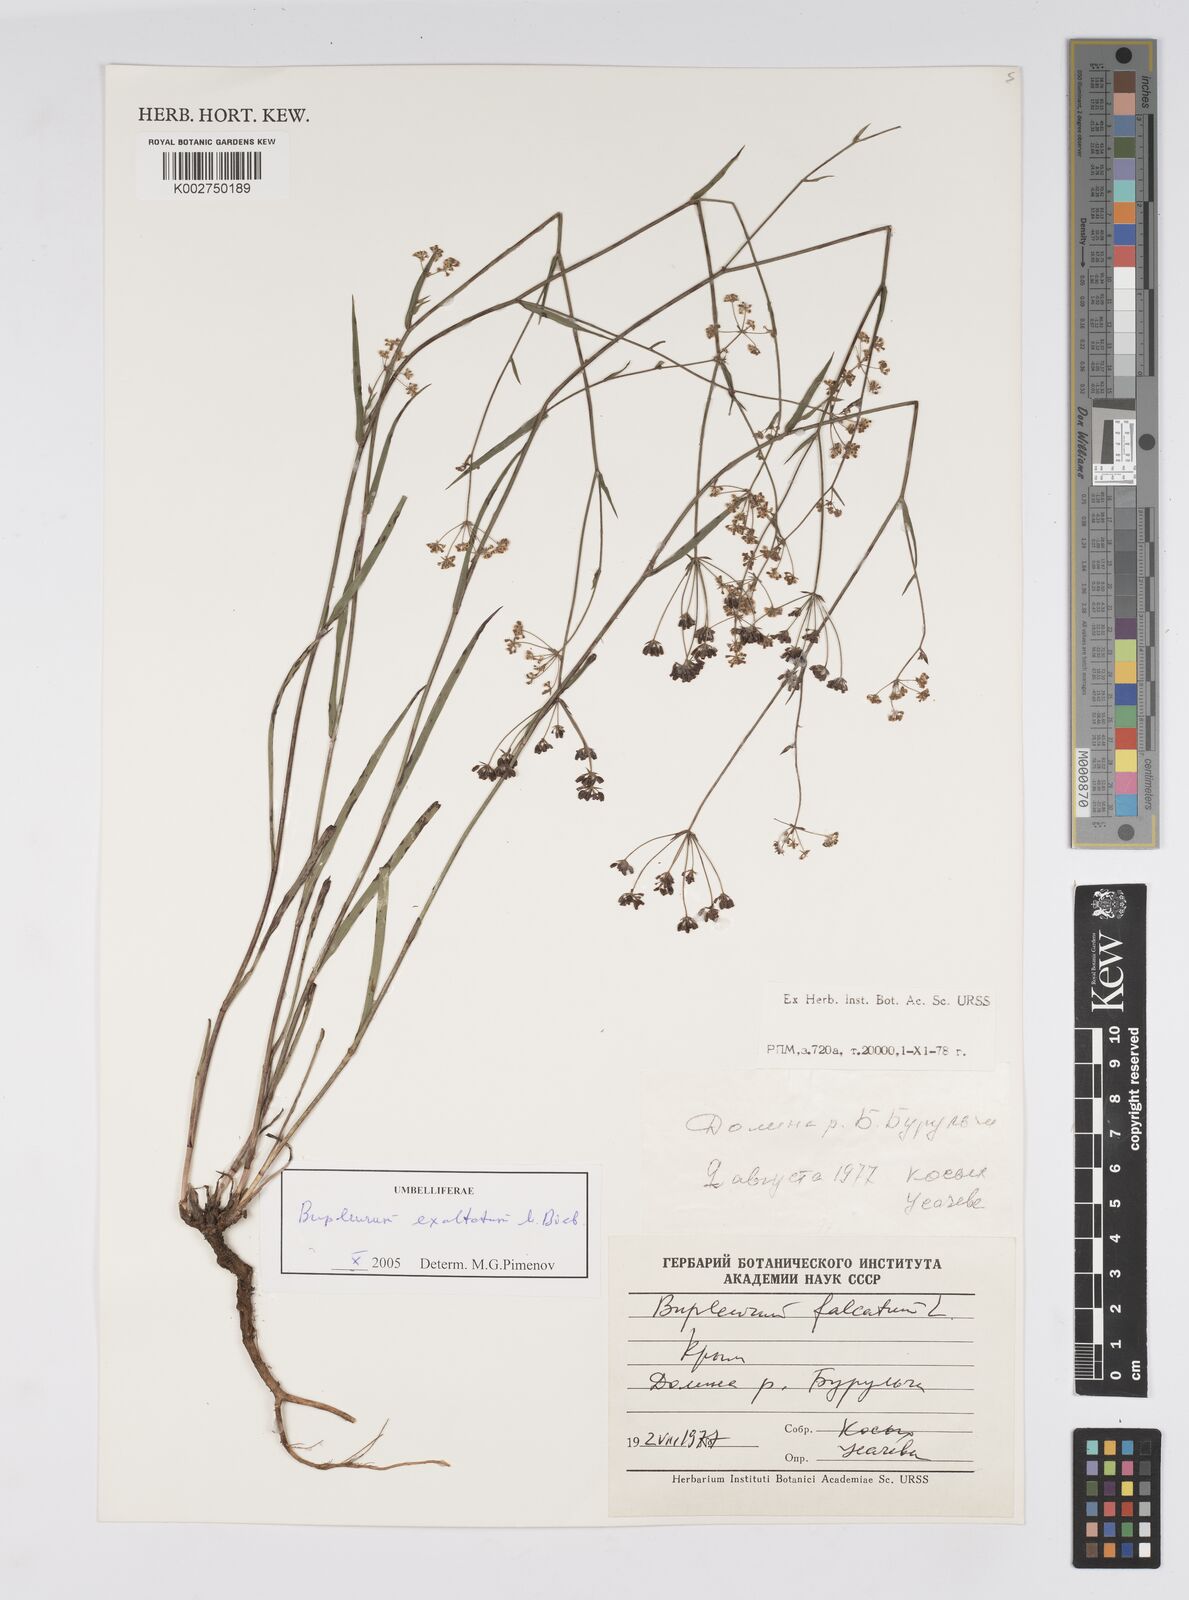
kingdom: Plantae
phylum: Tracheophyta
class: Magnoliopsida
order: Apiales
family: Apiaceae
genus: Bupleurum
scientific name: Bupleurum falcatum
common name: Sickle-leaved hare's-ear
